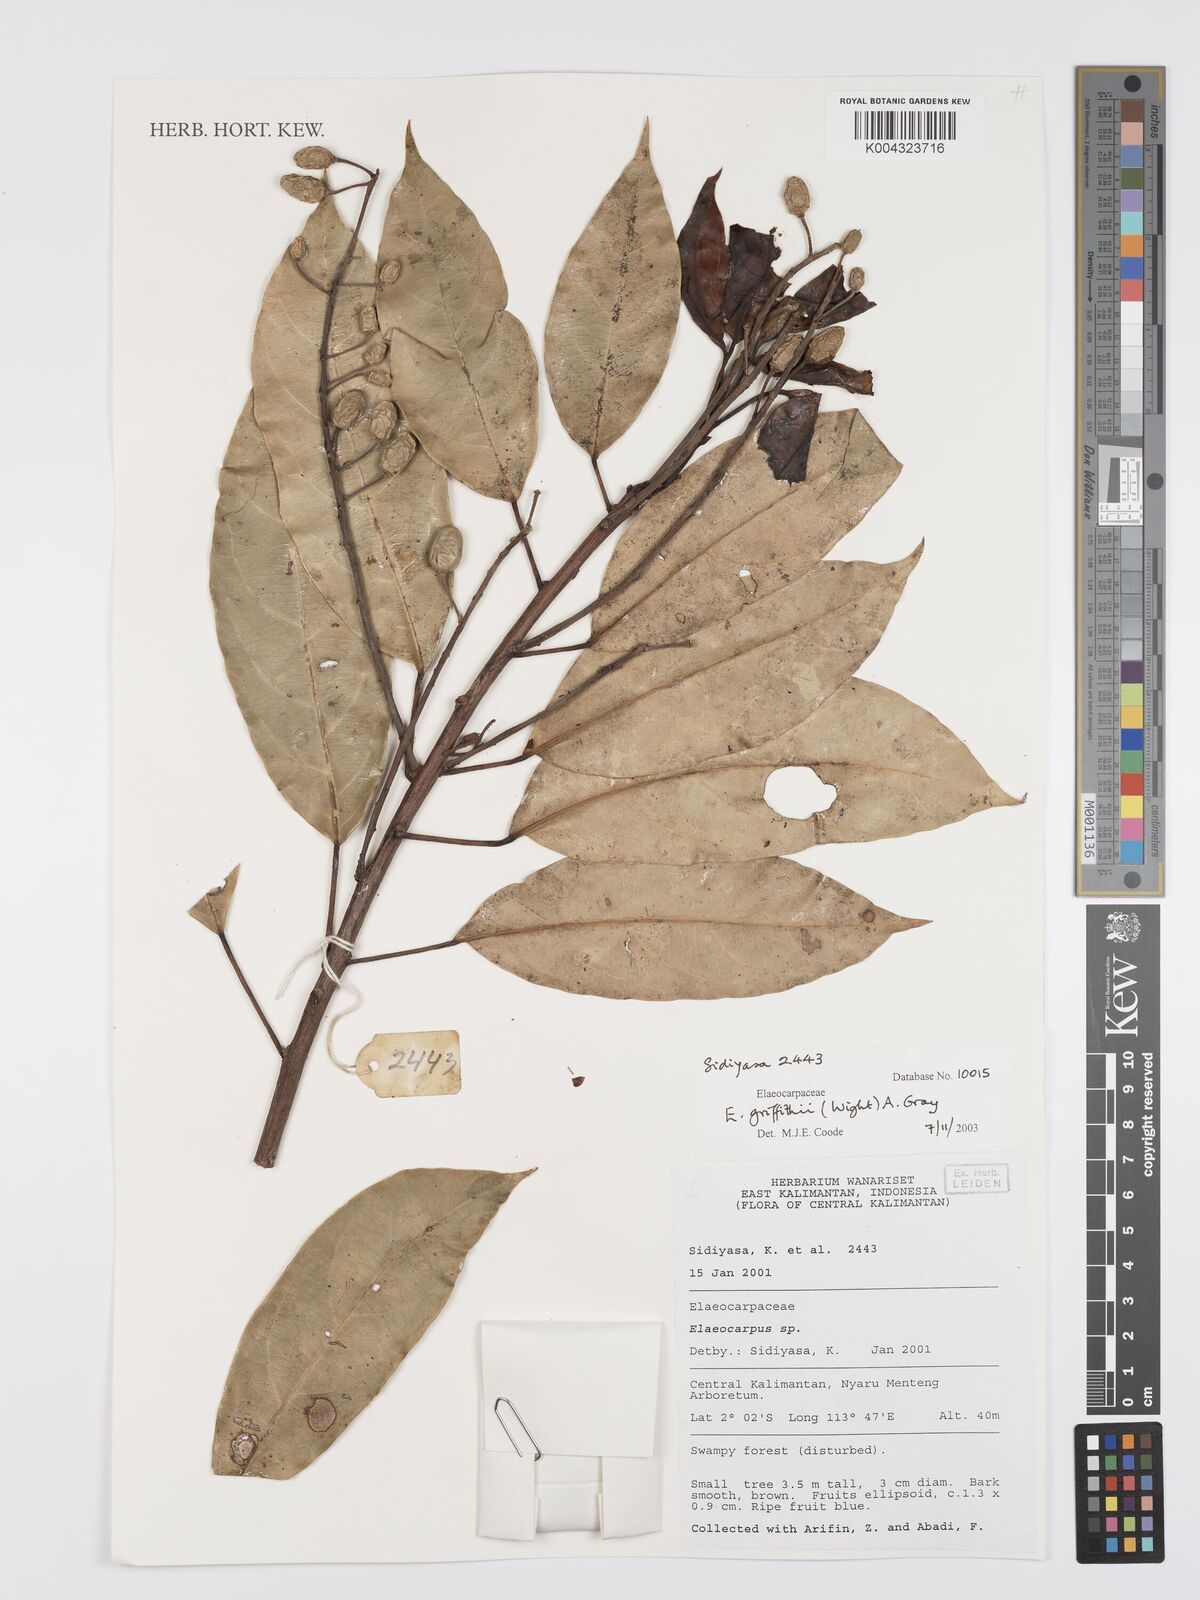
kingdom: Plantae
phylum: Tracheophyta
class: Magnoliopsida
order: Oxalidales
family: Elaeocarpaceae
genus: Elaeocarpus
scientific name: Elaeocarpus griffithii
